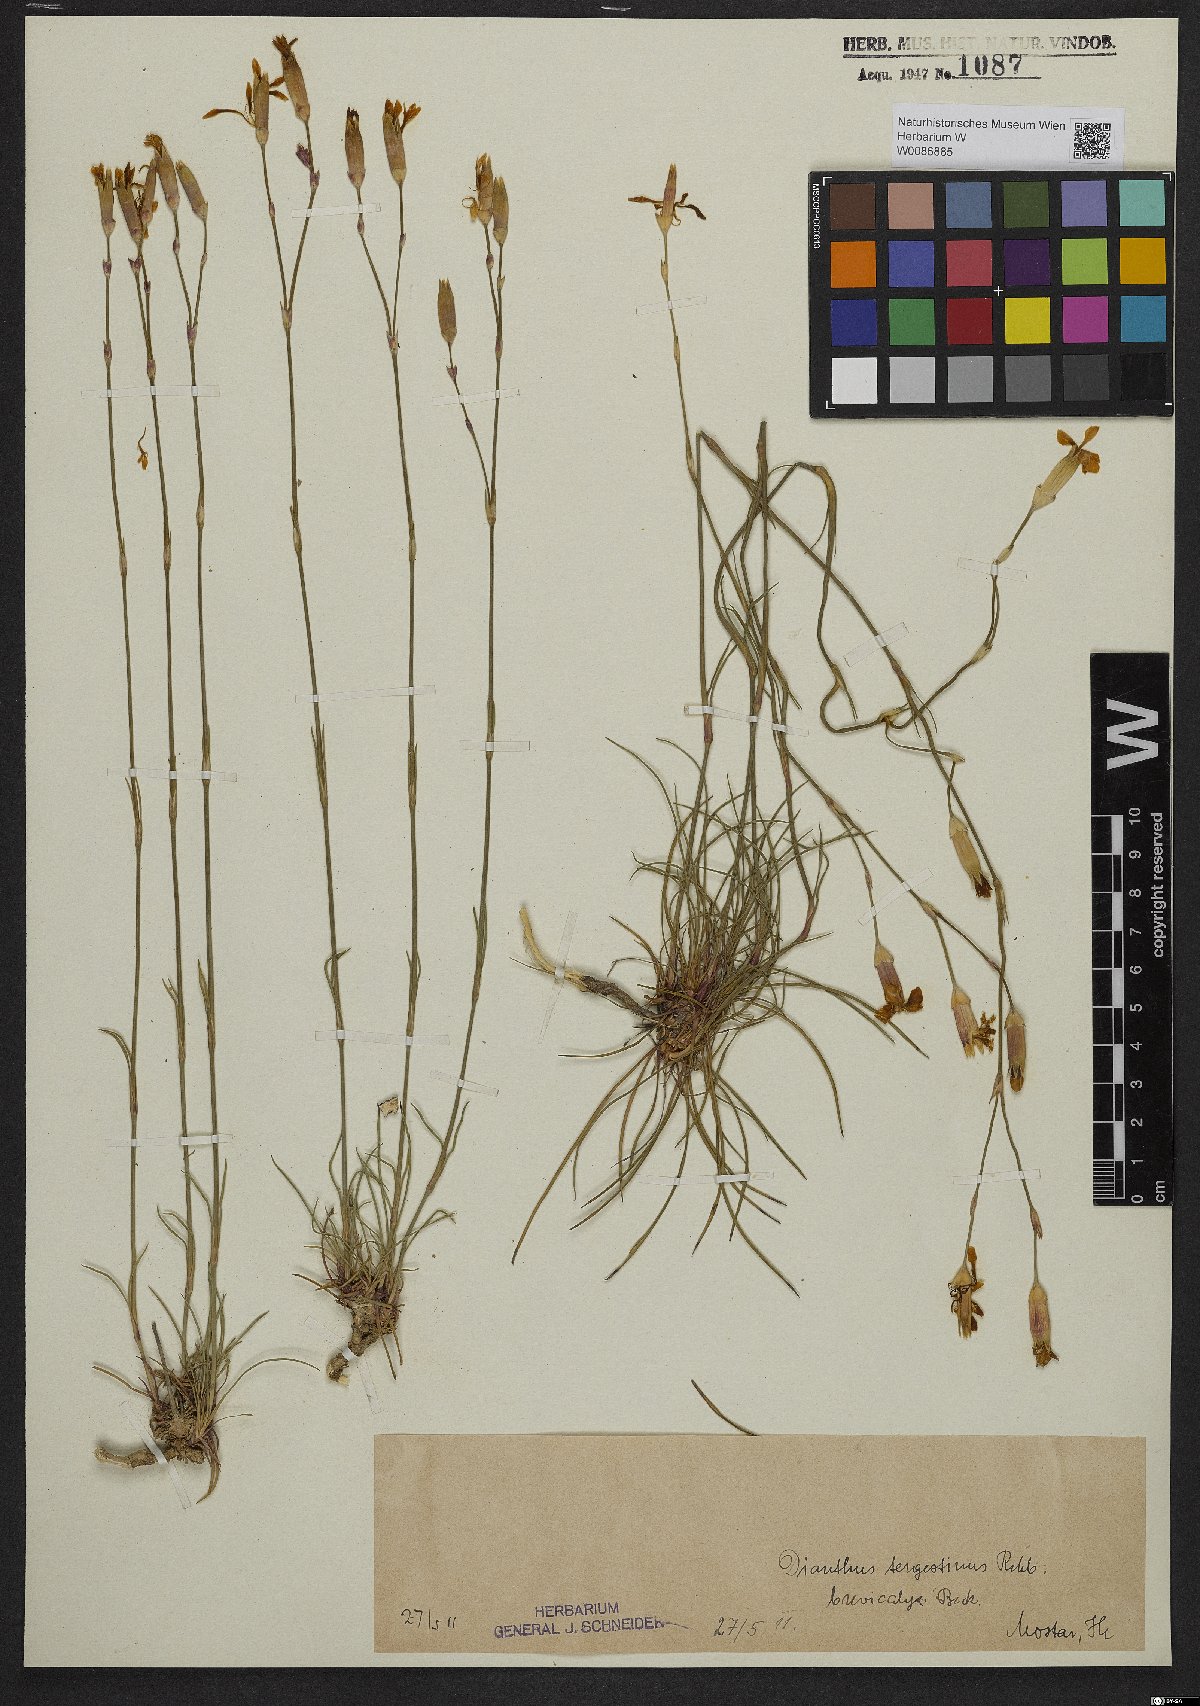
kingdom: Plantae
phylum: Tracheophyta
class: Magnoliopsida
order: Caryophyllales
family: Caryophyllaceae
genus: Dianthus
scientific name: Dianthus sylvestris
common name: Wood pink
